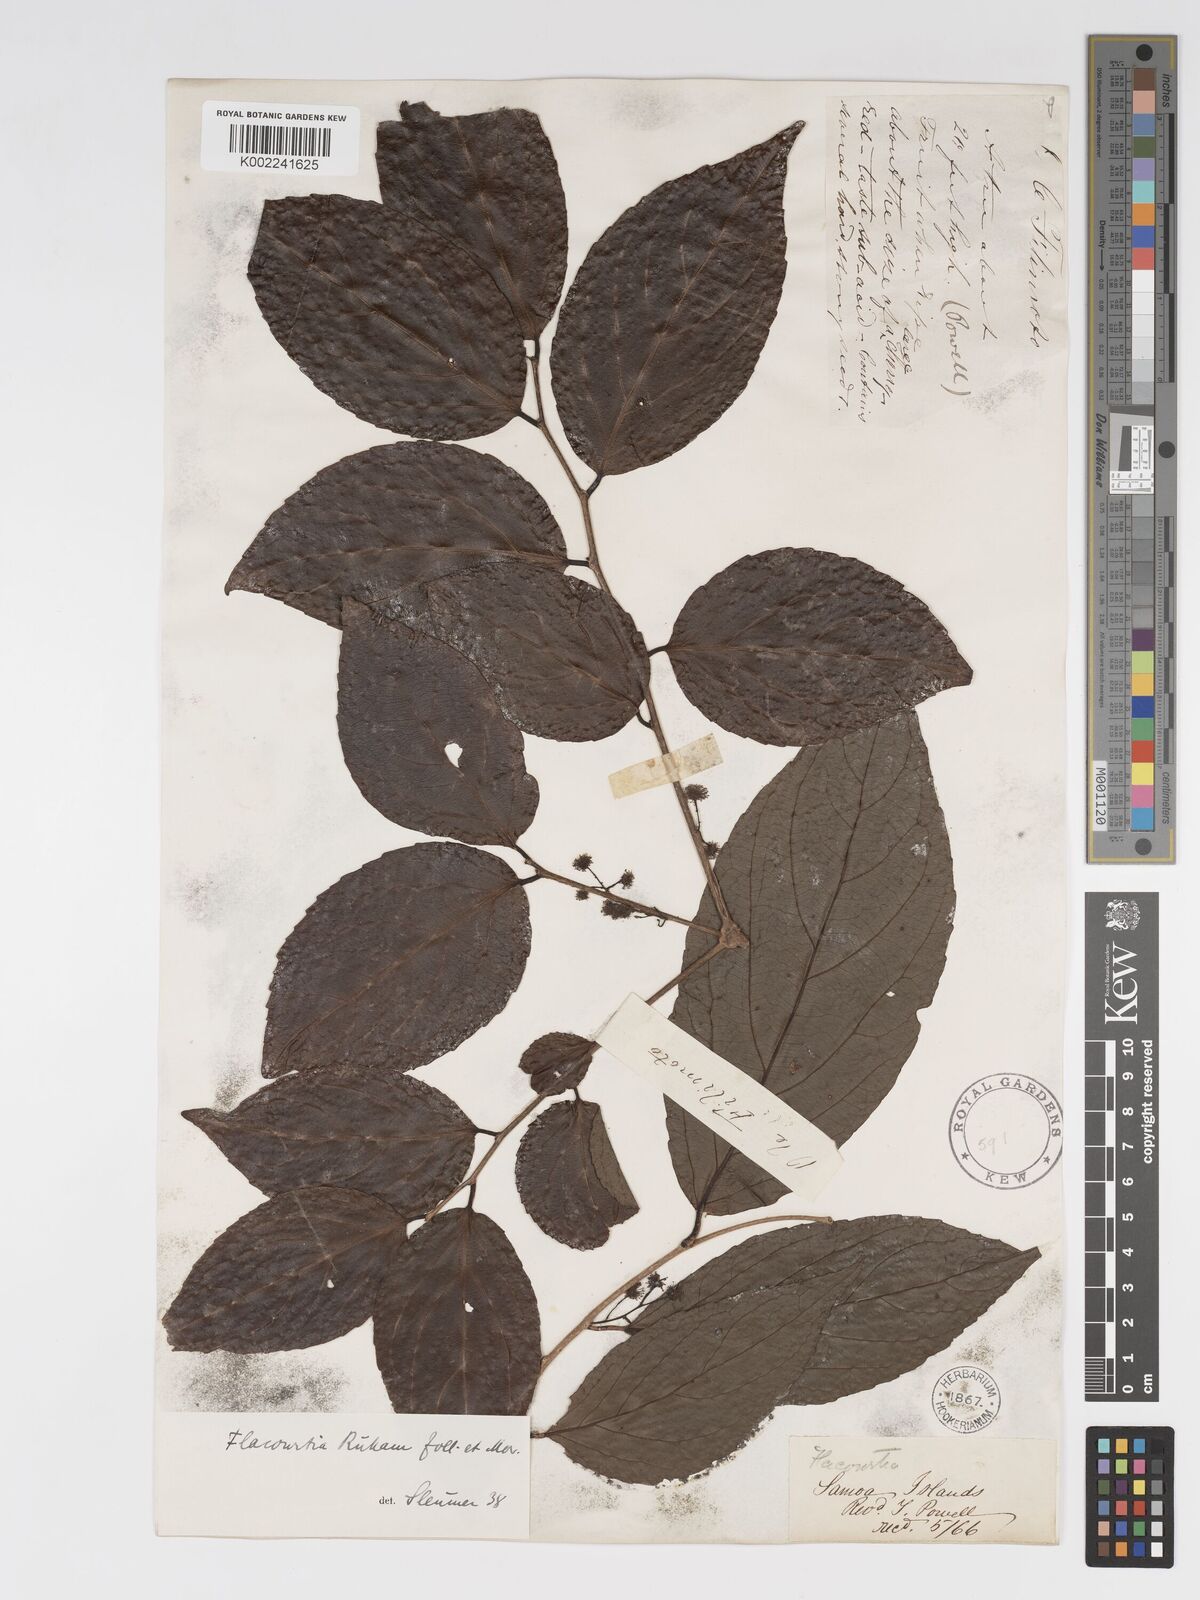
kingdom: Plantae
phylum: Tracheophyta
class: Magnoliopsida
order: Malpighiales
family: Salicaceae
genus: Flacourtia
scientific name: Flacourtia rukam
